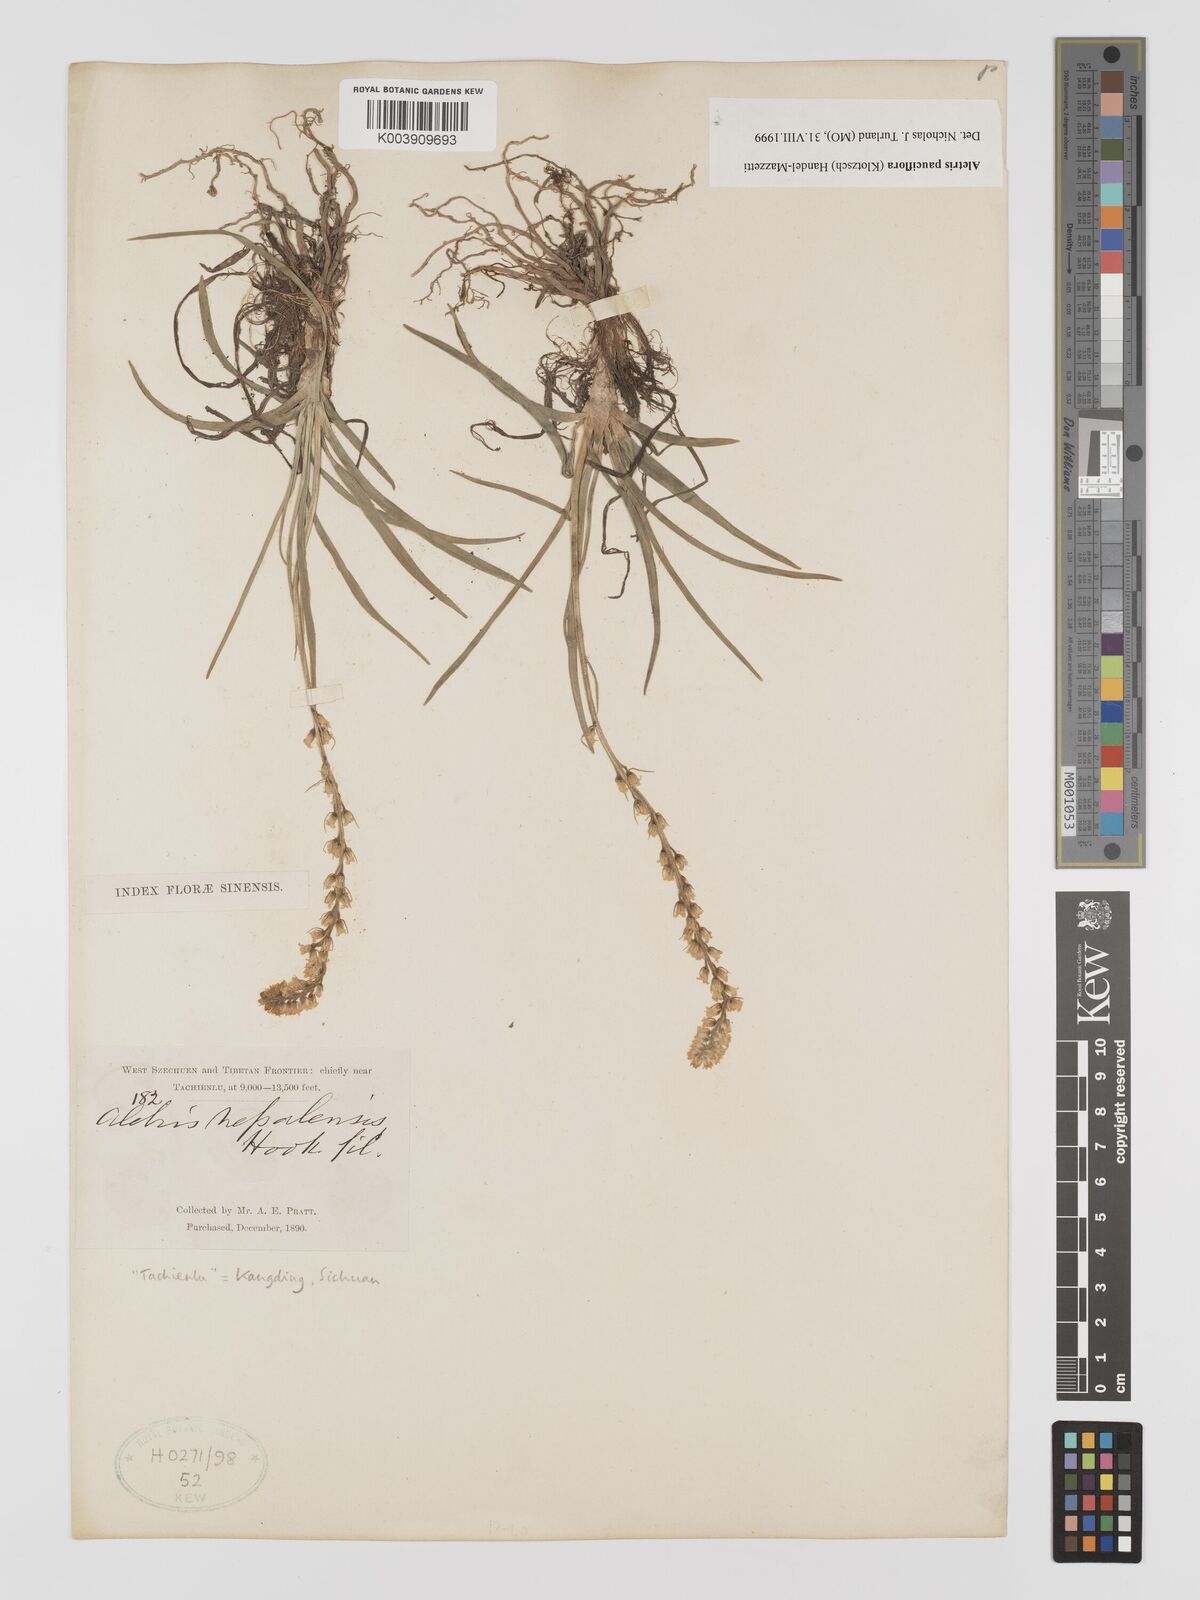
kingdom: Plantae
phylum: Tracheophyta
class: Liliopsida
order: Dioscoreales
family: Nartheciaceae
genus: Aletris
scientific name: Aletris pauciflora
